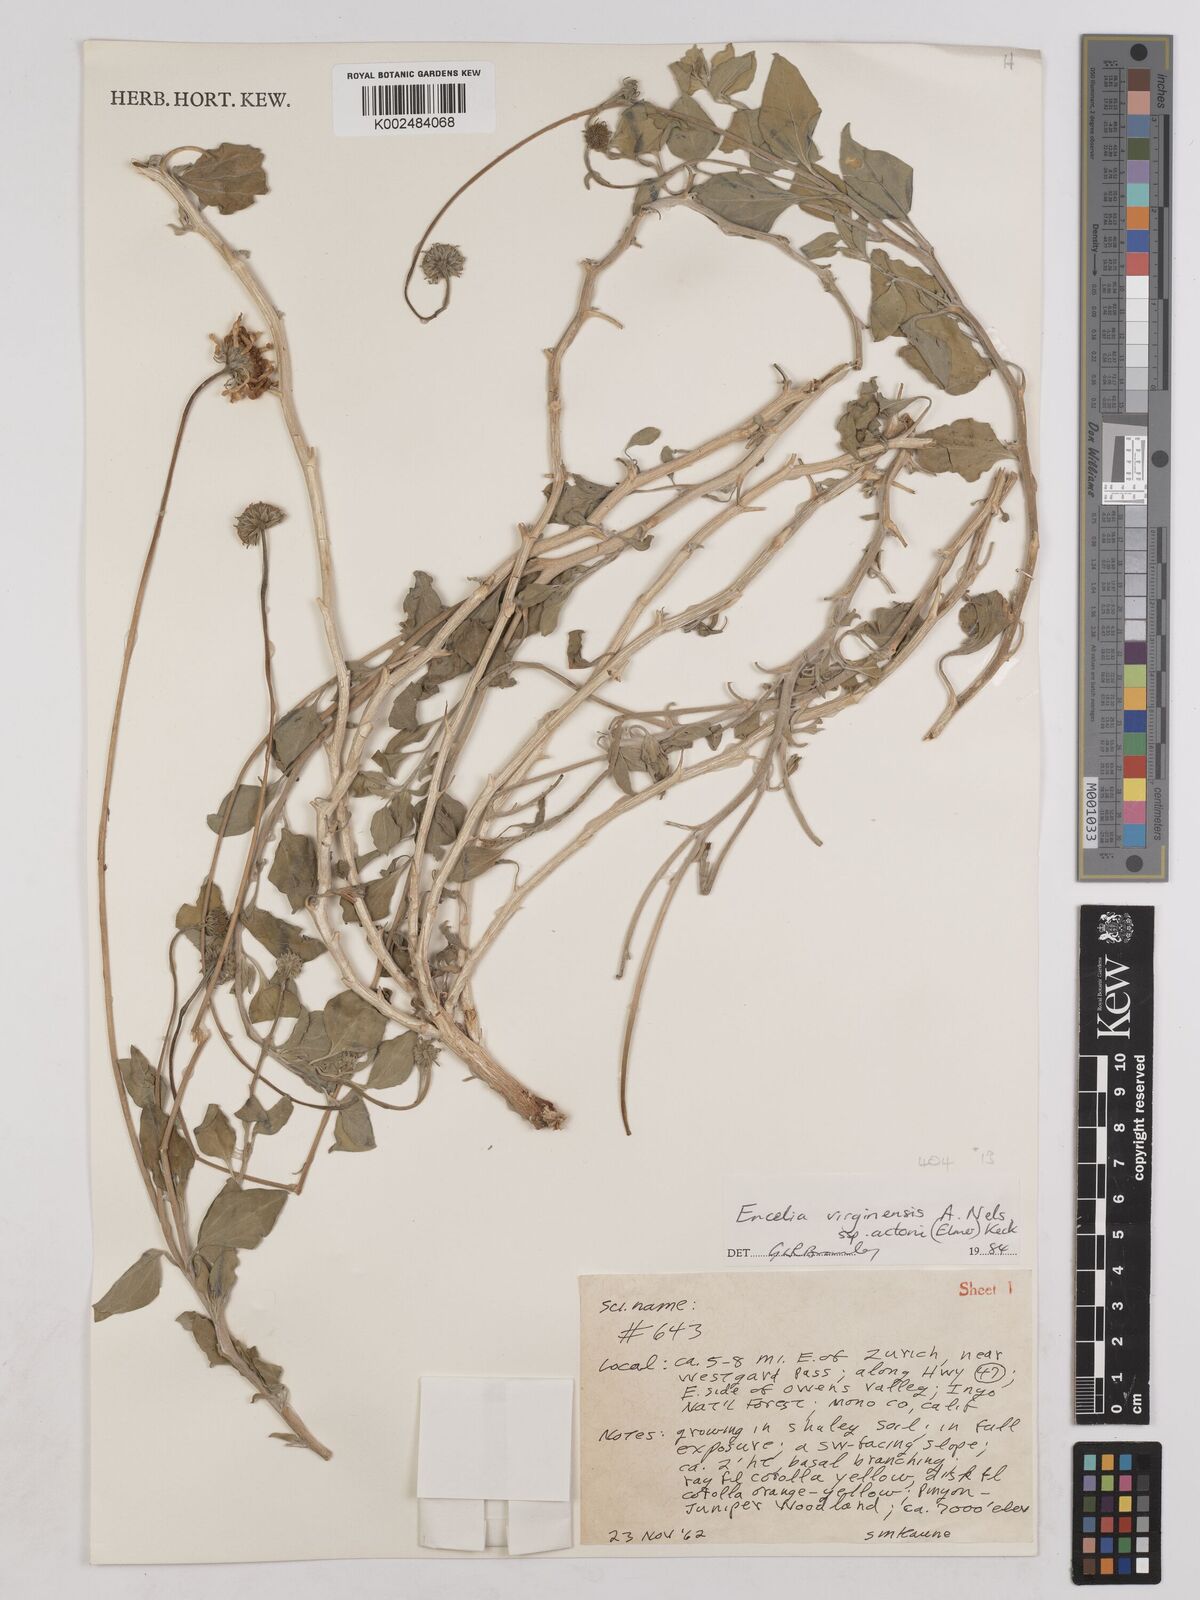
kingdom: Plantae
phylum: Tracheophyta
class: Magnoliopsida
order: Asterales
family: Asteraceae
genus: Encelia
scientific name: Encelia actoni
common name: Acton encelia
